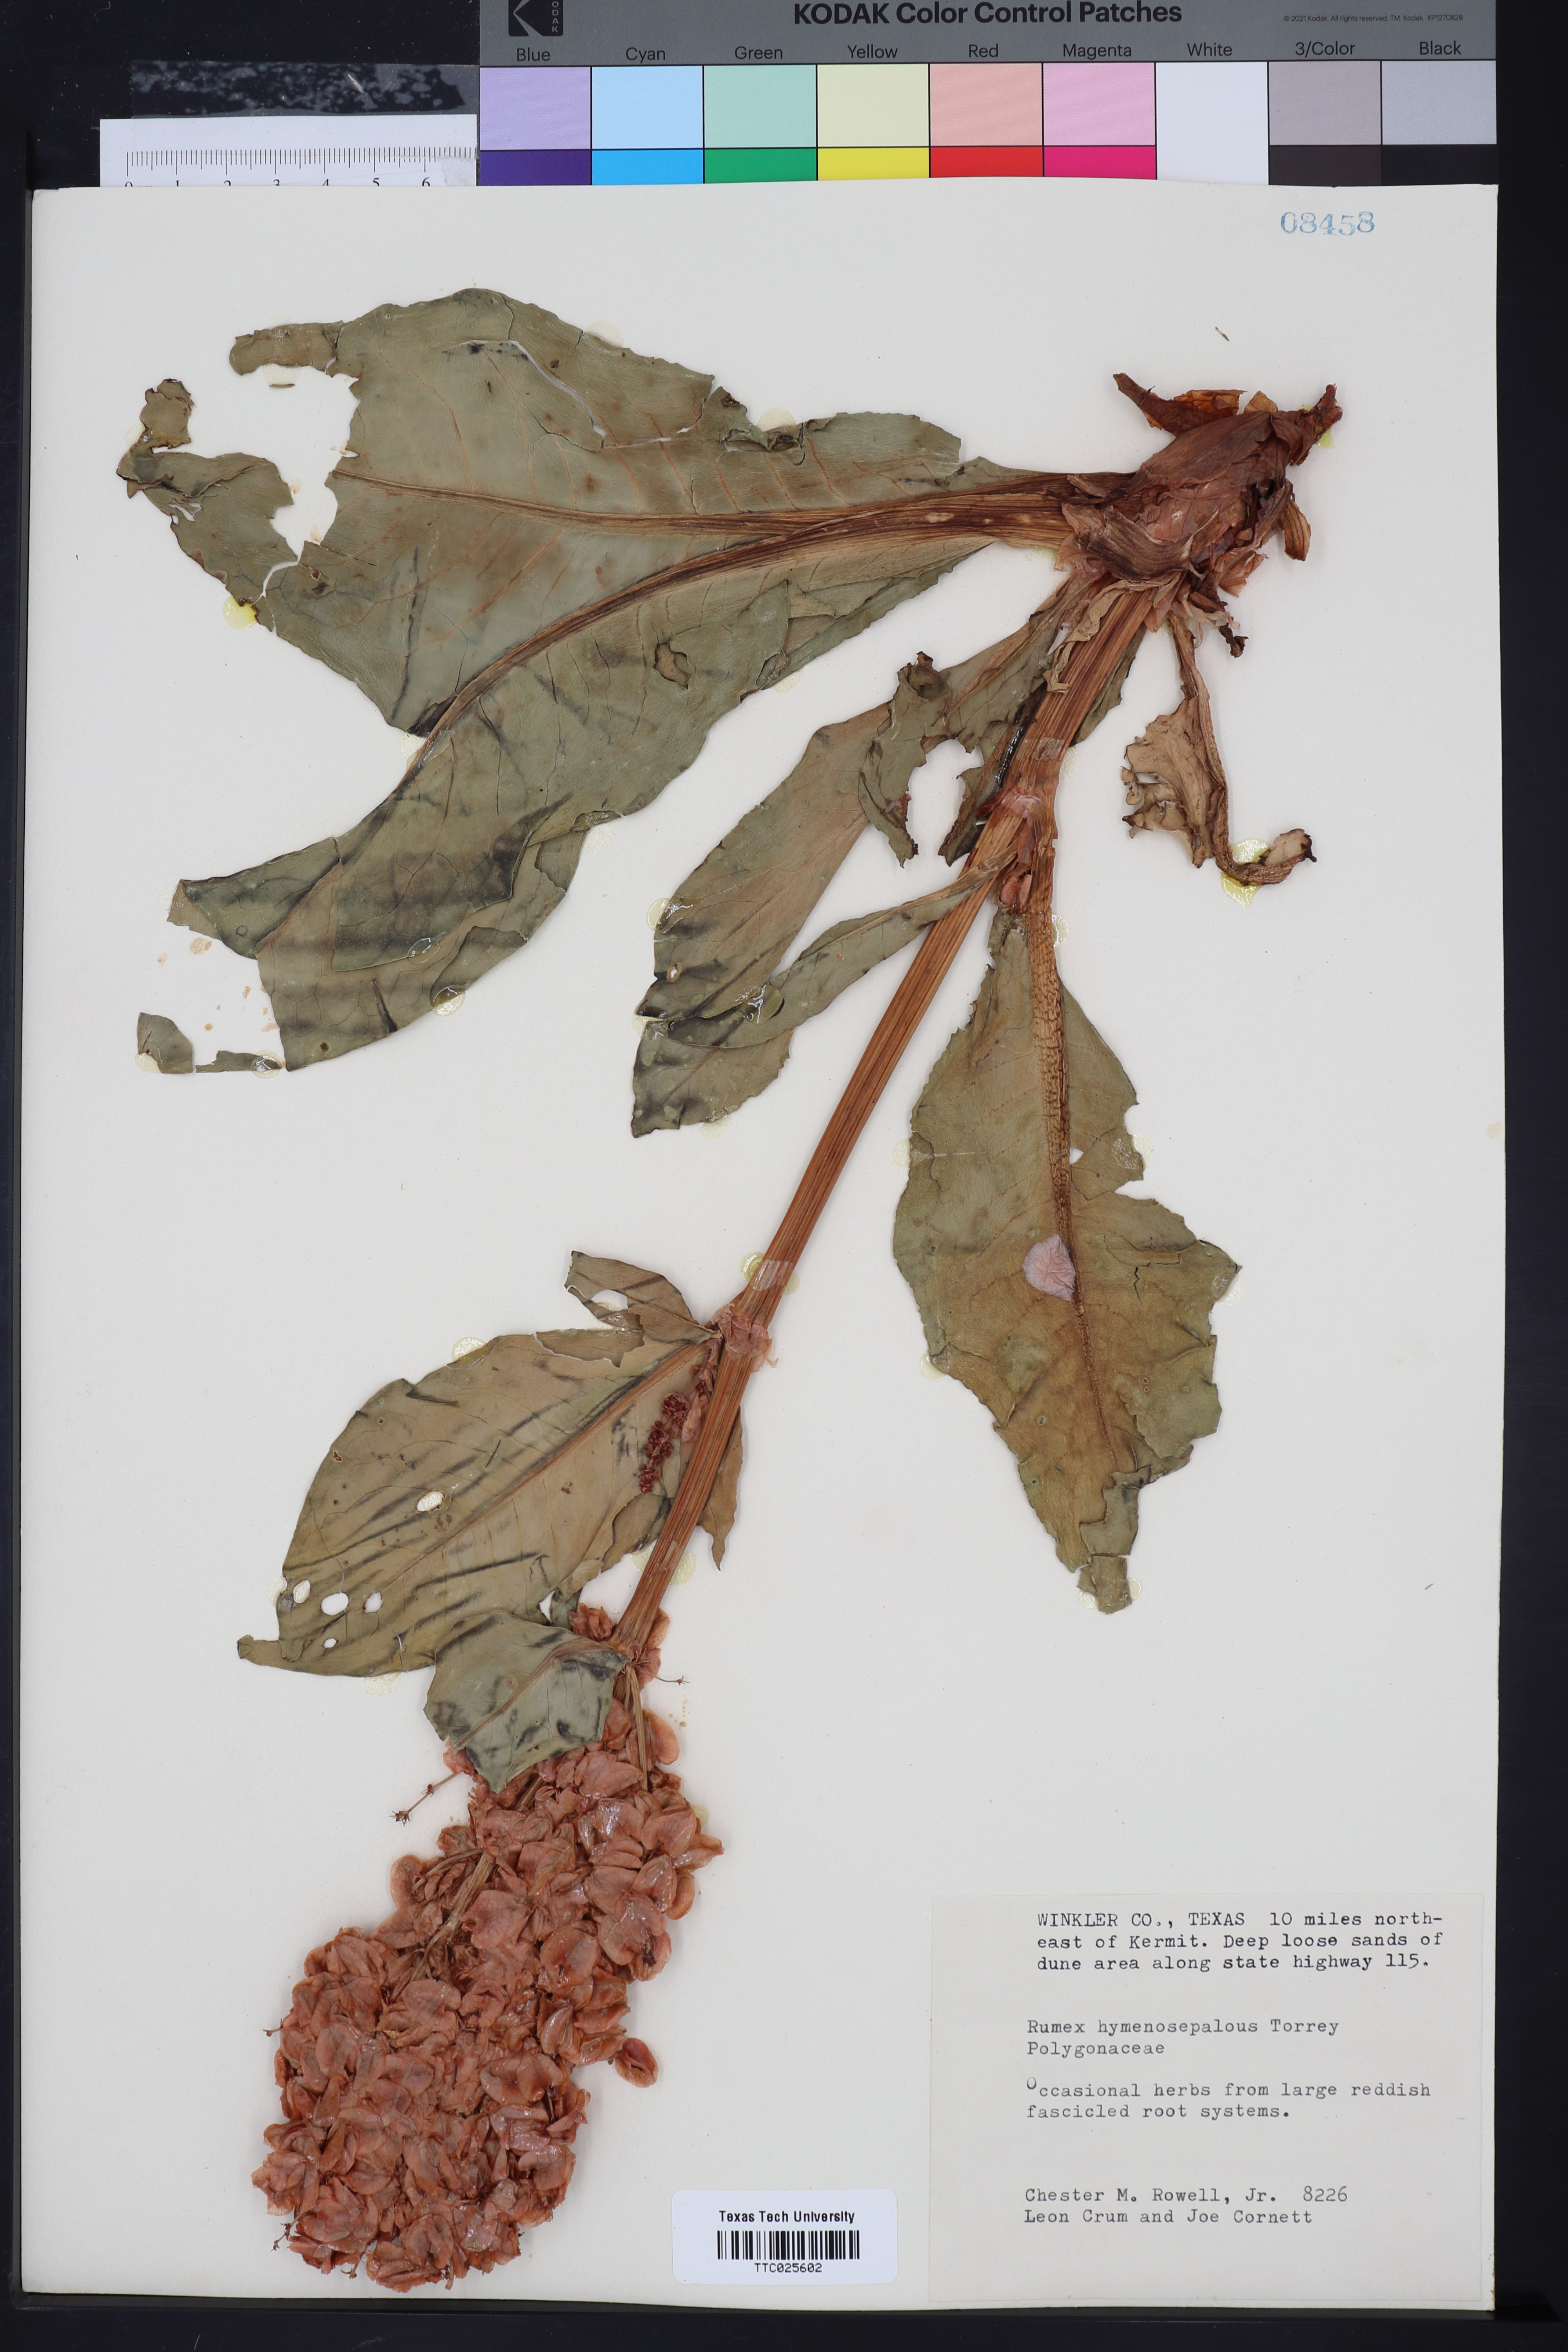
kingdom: Plantae
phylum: Tracheophyta
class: Magnoliopsida
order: Caryophyllales
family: Polygonaceae
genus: Rumex
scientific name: Rumex hymenosepalus
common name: Ganagra
